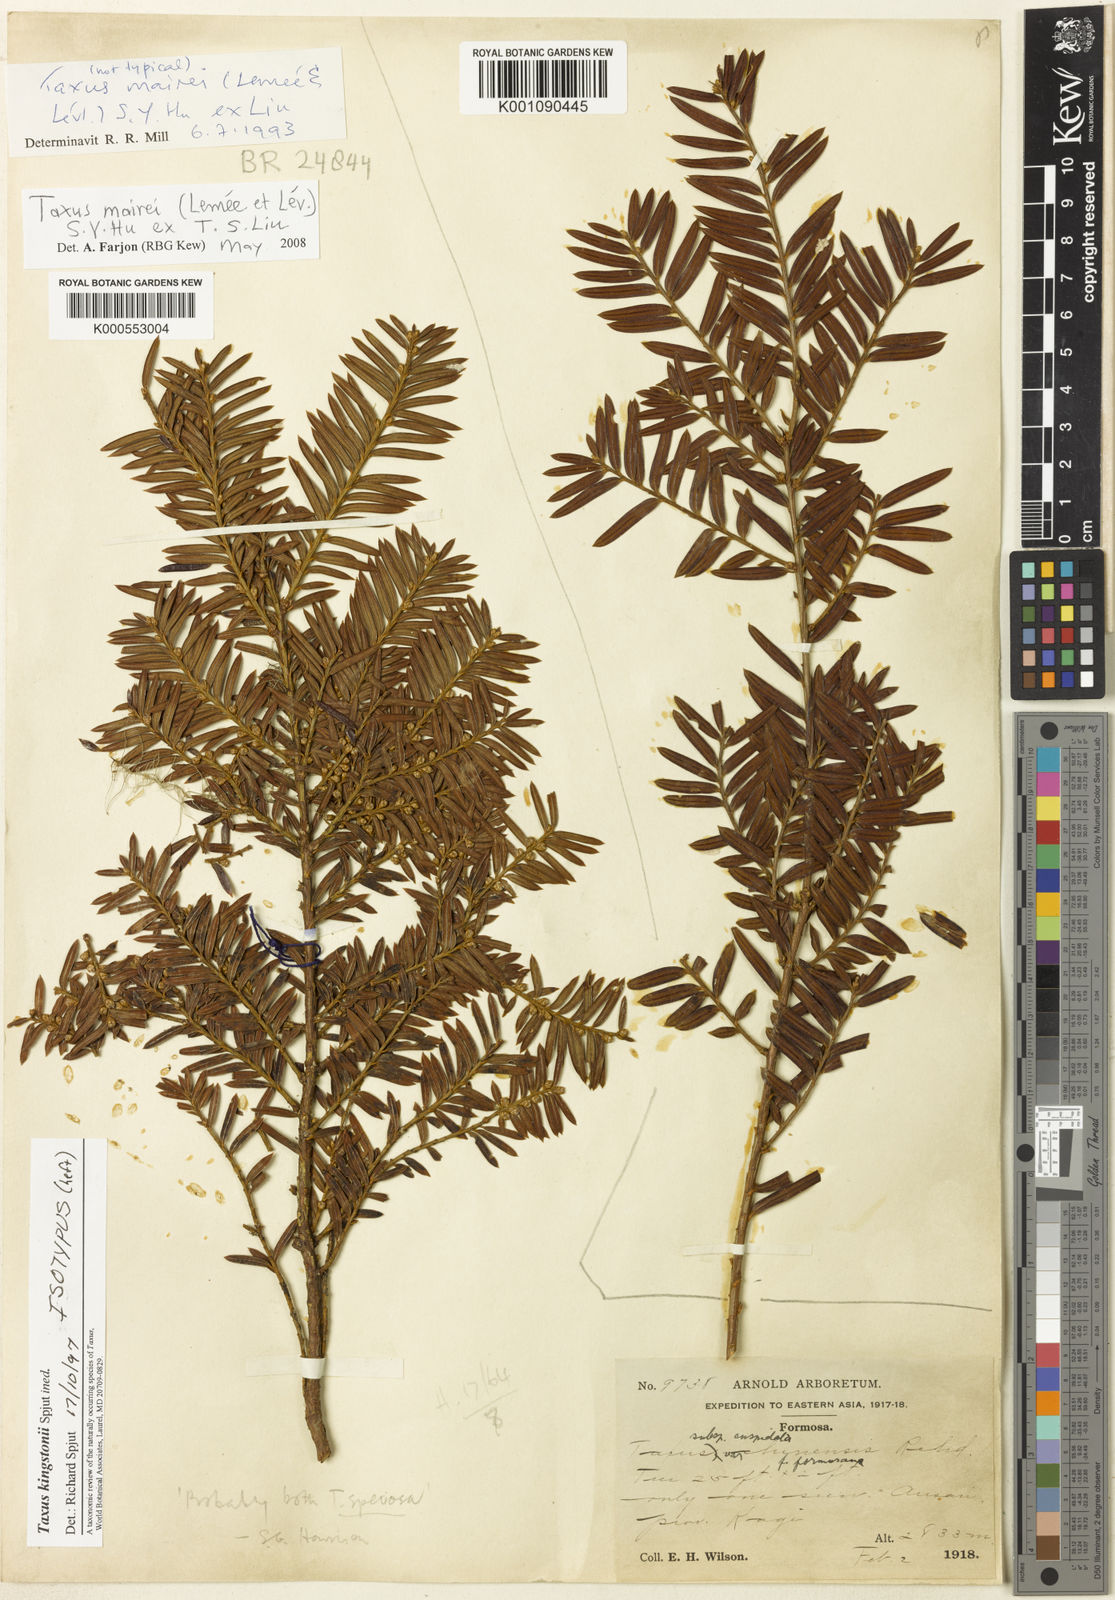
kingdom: Plantae
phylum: Tracheophyta
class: Pinopsida
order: Pinales
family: Taxaceae
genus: Taxus
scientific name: Taxus chinensis
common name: Chinese yew
